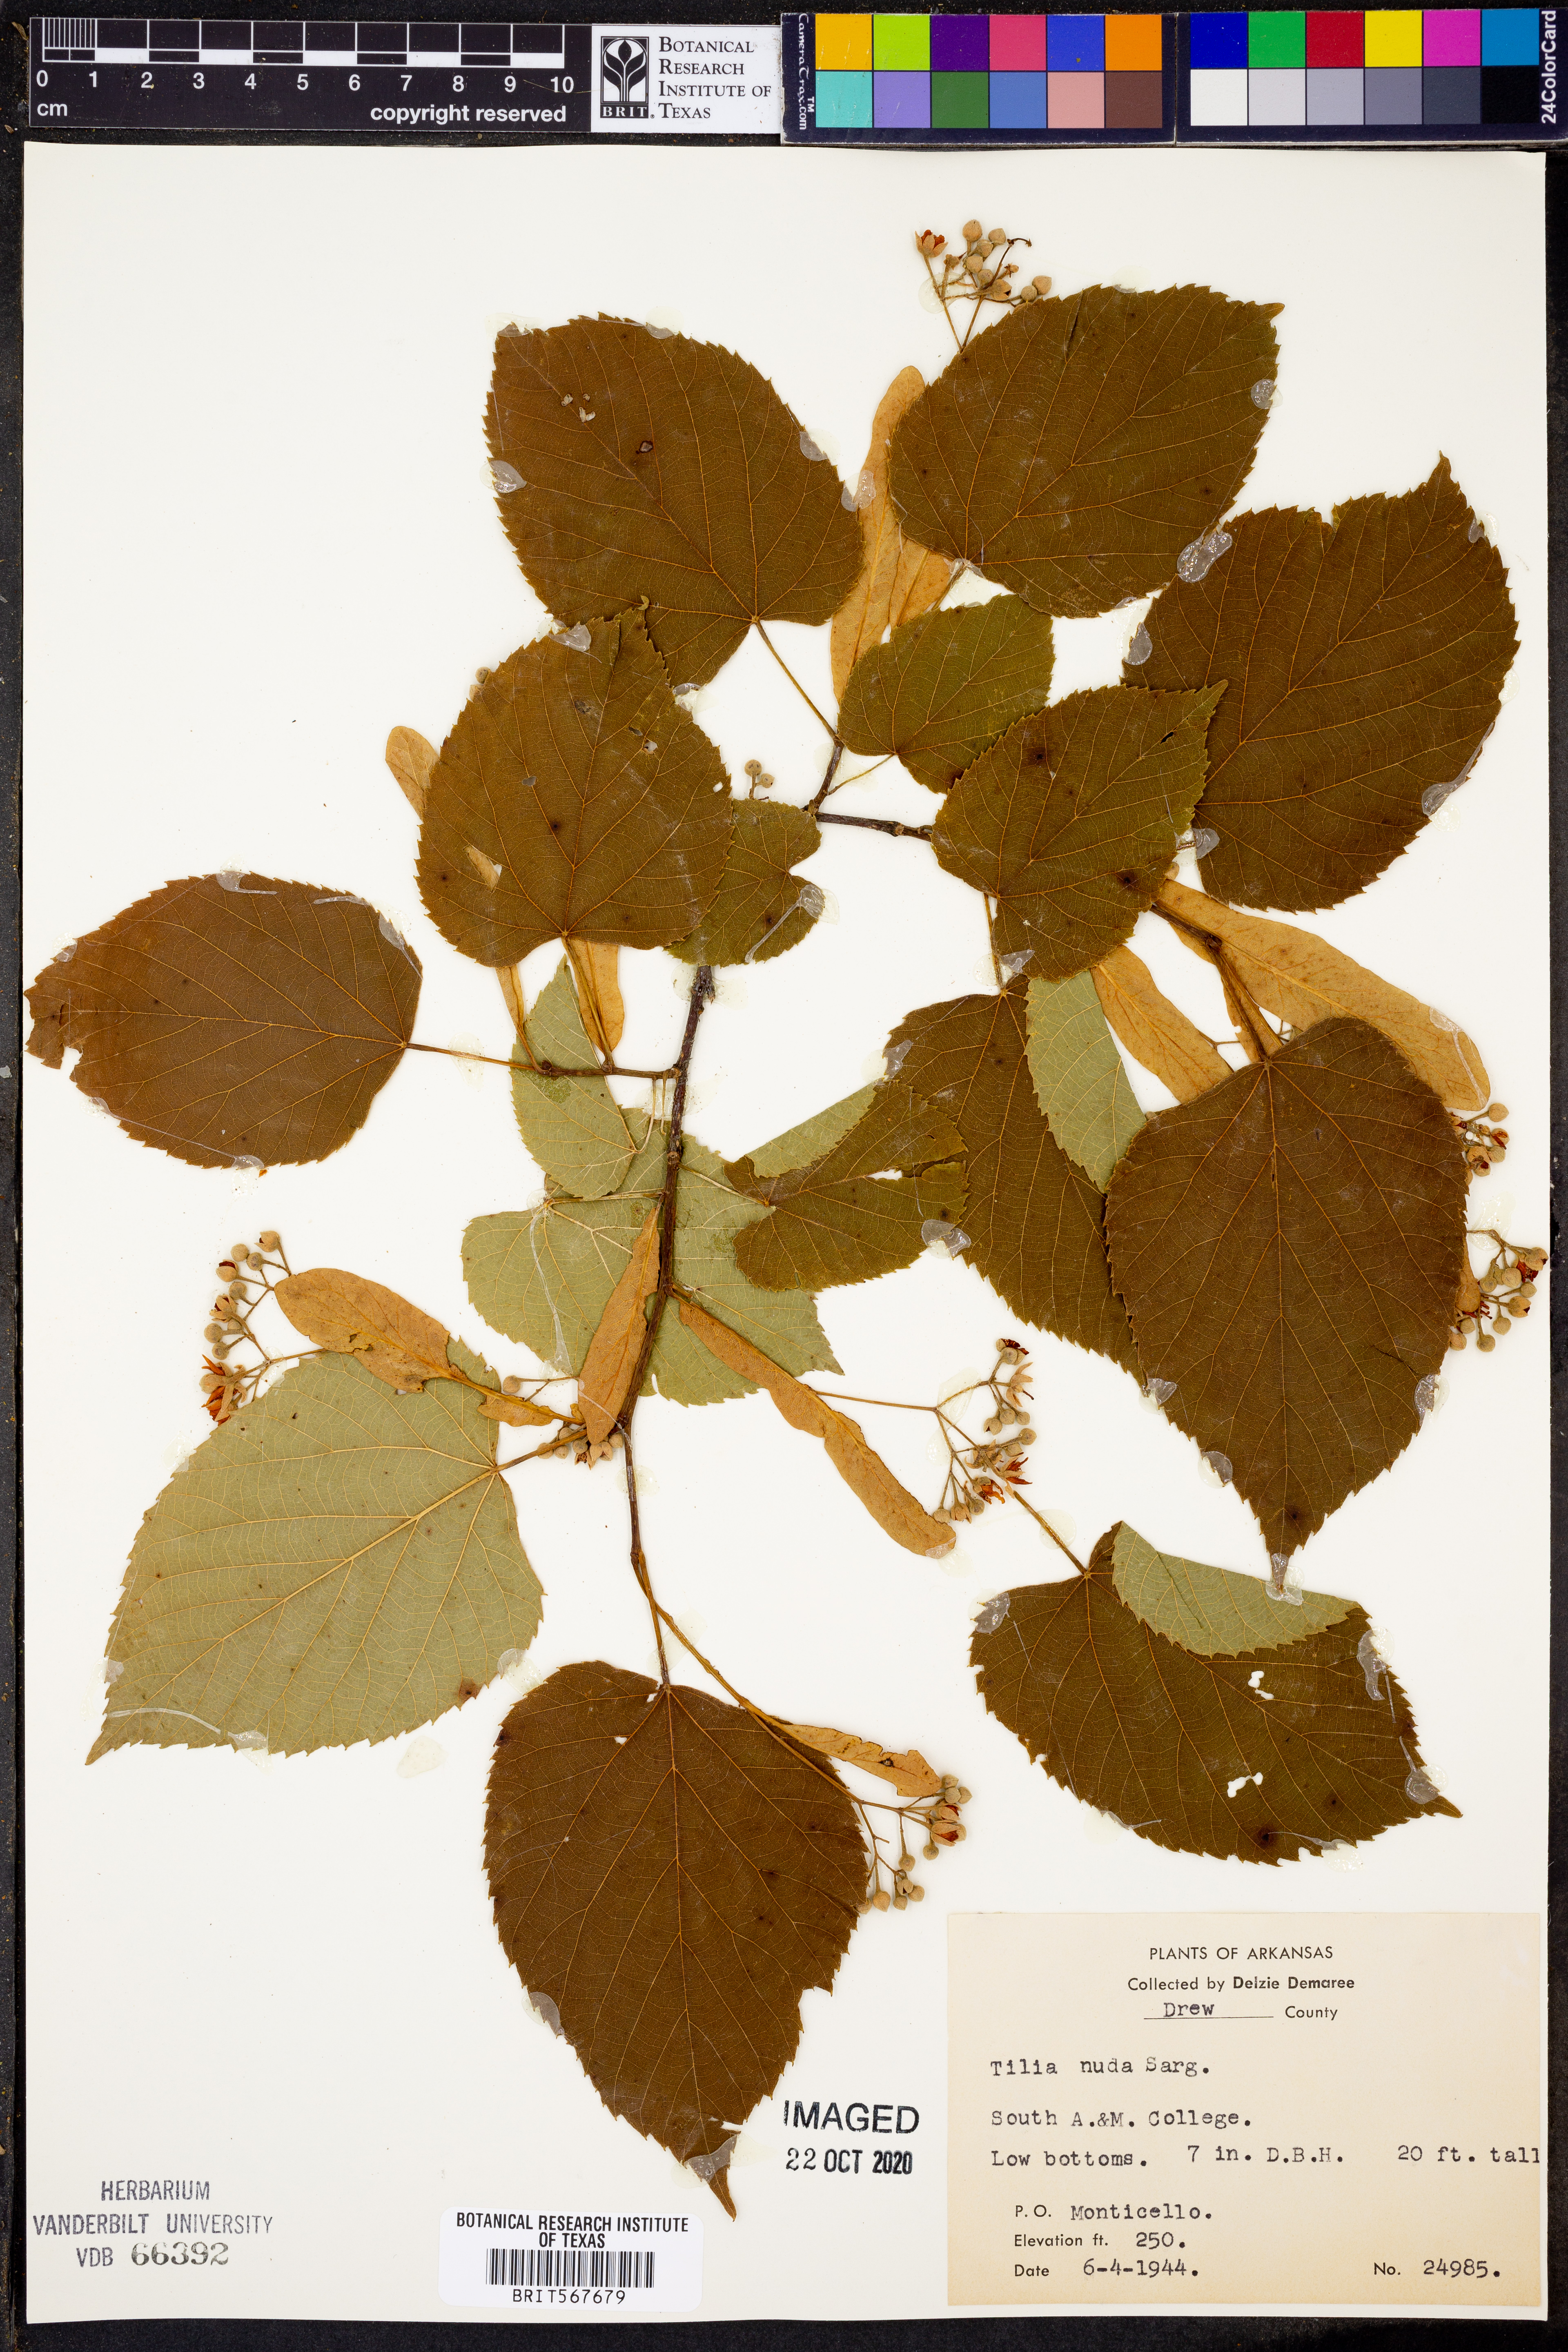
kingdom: Plantae
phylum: Tracheophyta
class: Magnoliopsida
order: Malvales
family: Malvaceae
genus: Tilia
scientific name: Tilia americana
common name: Basswood
